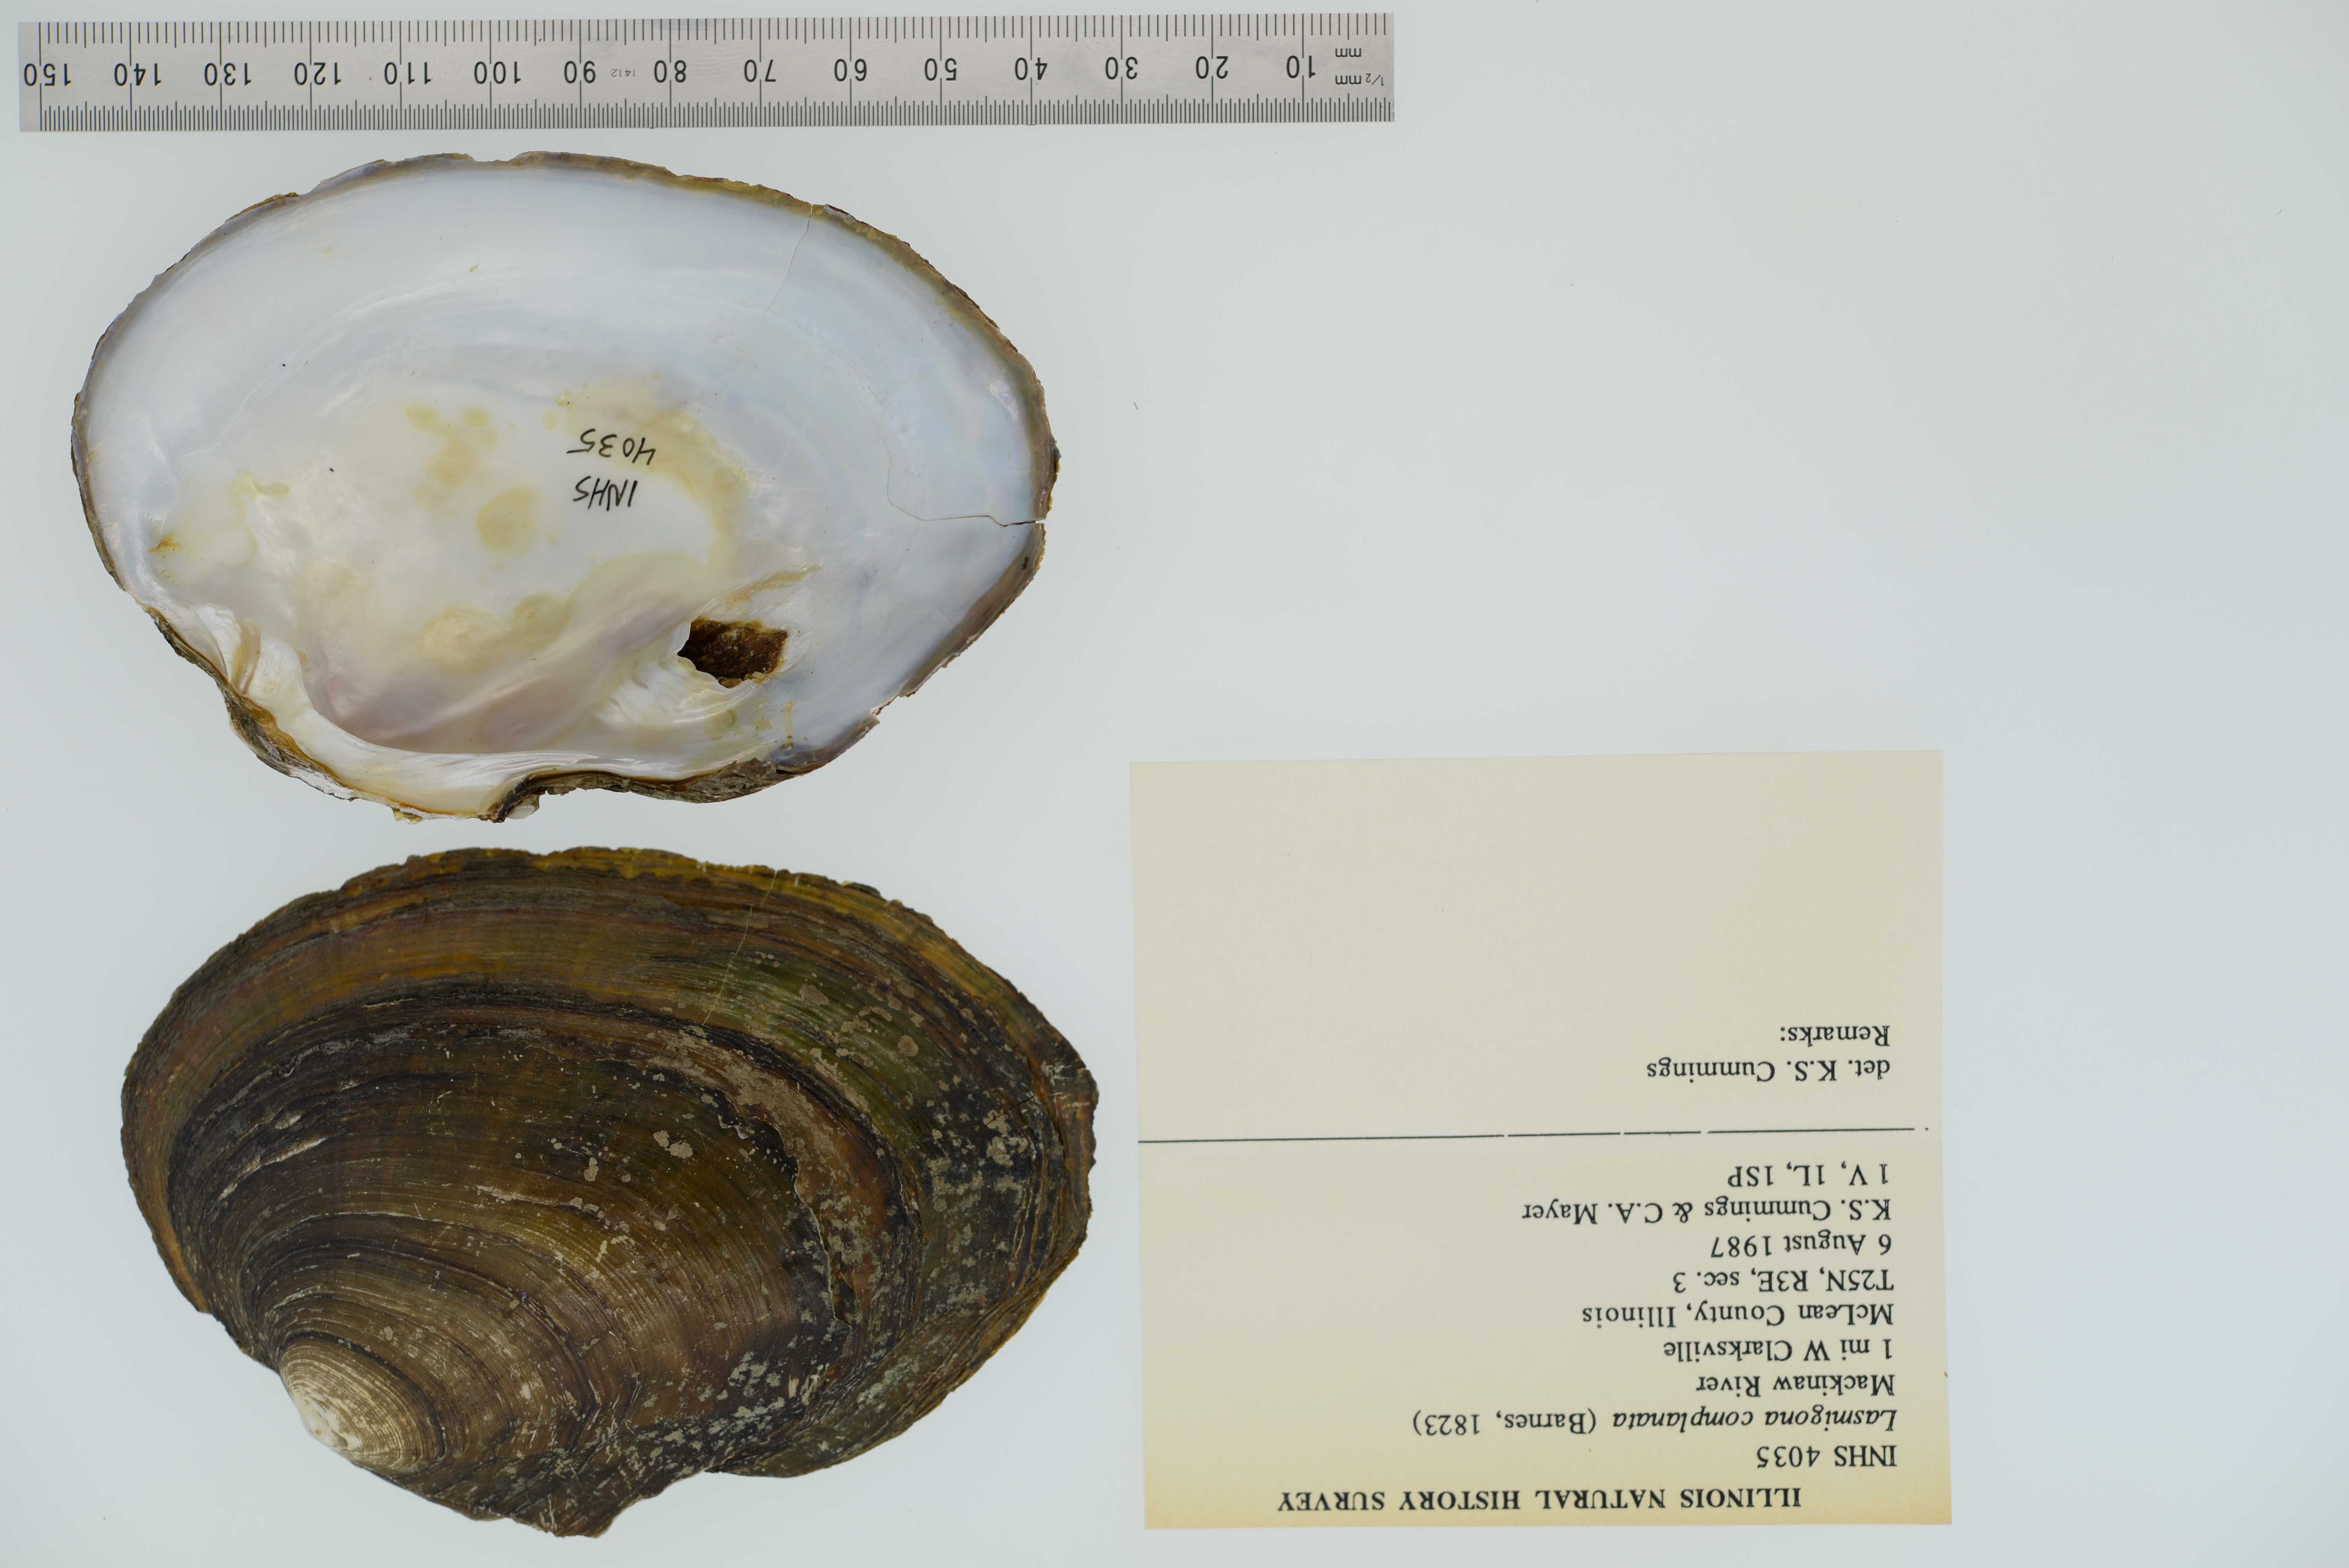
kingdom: Animalia
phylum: Mollusca
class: Bivalvia
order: Unionida
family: Unionidae
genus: Lasmigona
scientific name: Lasmigona complanata
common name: White heelsplitter
